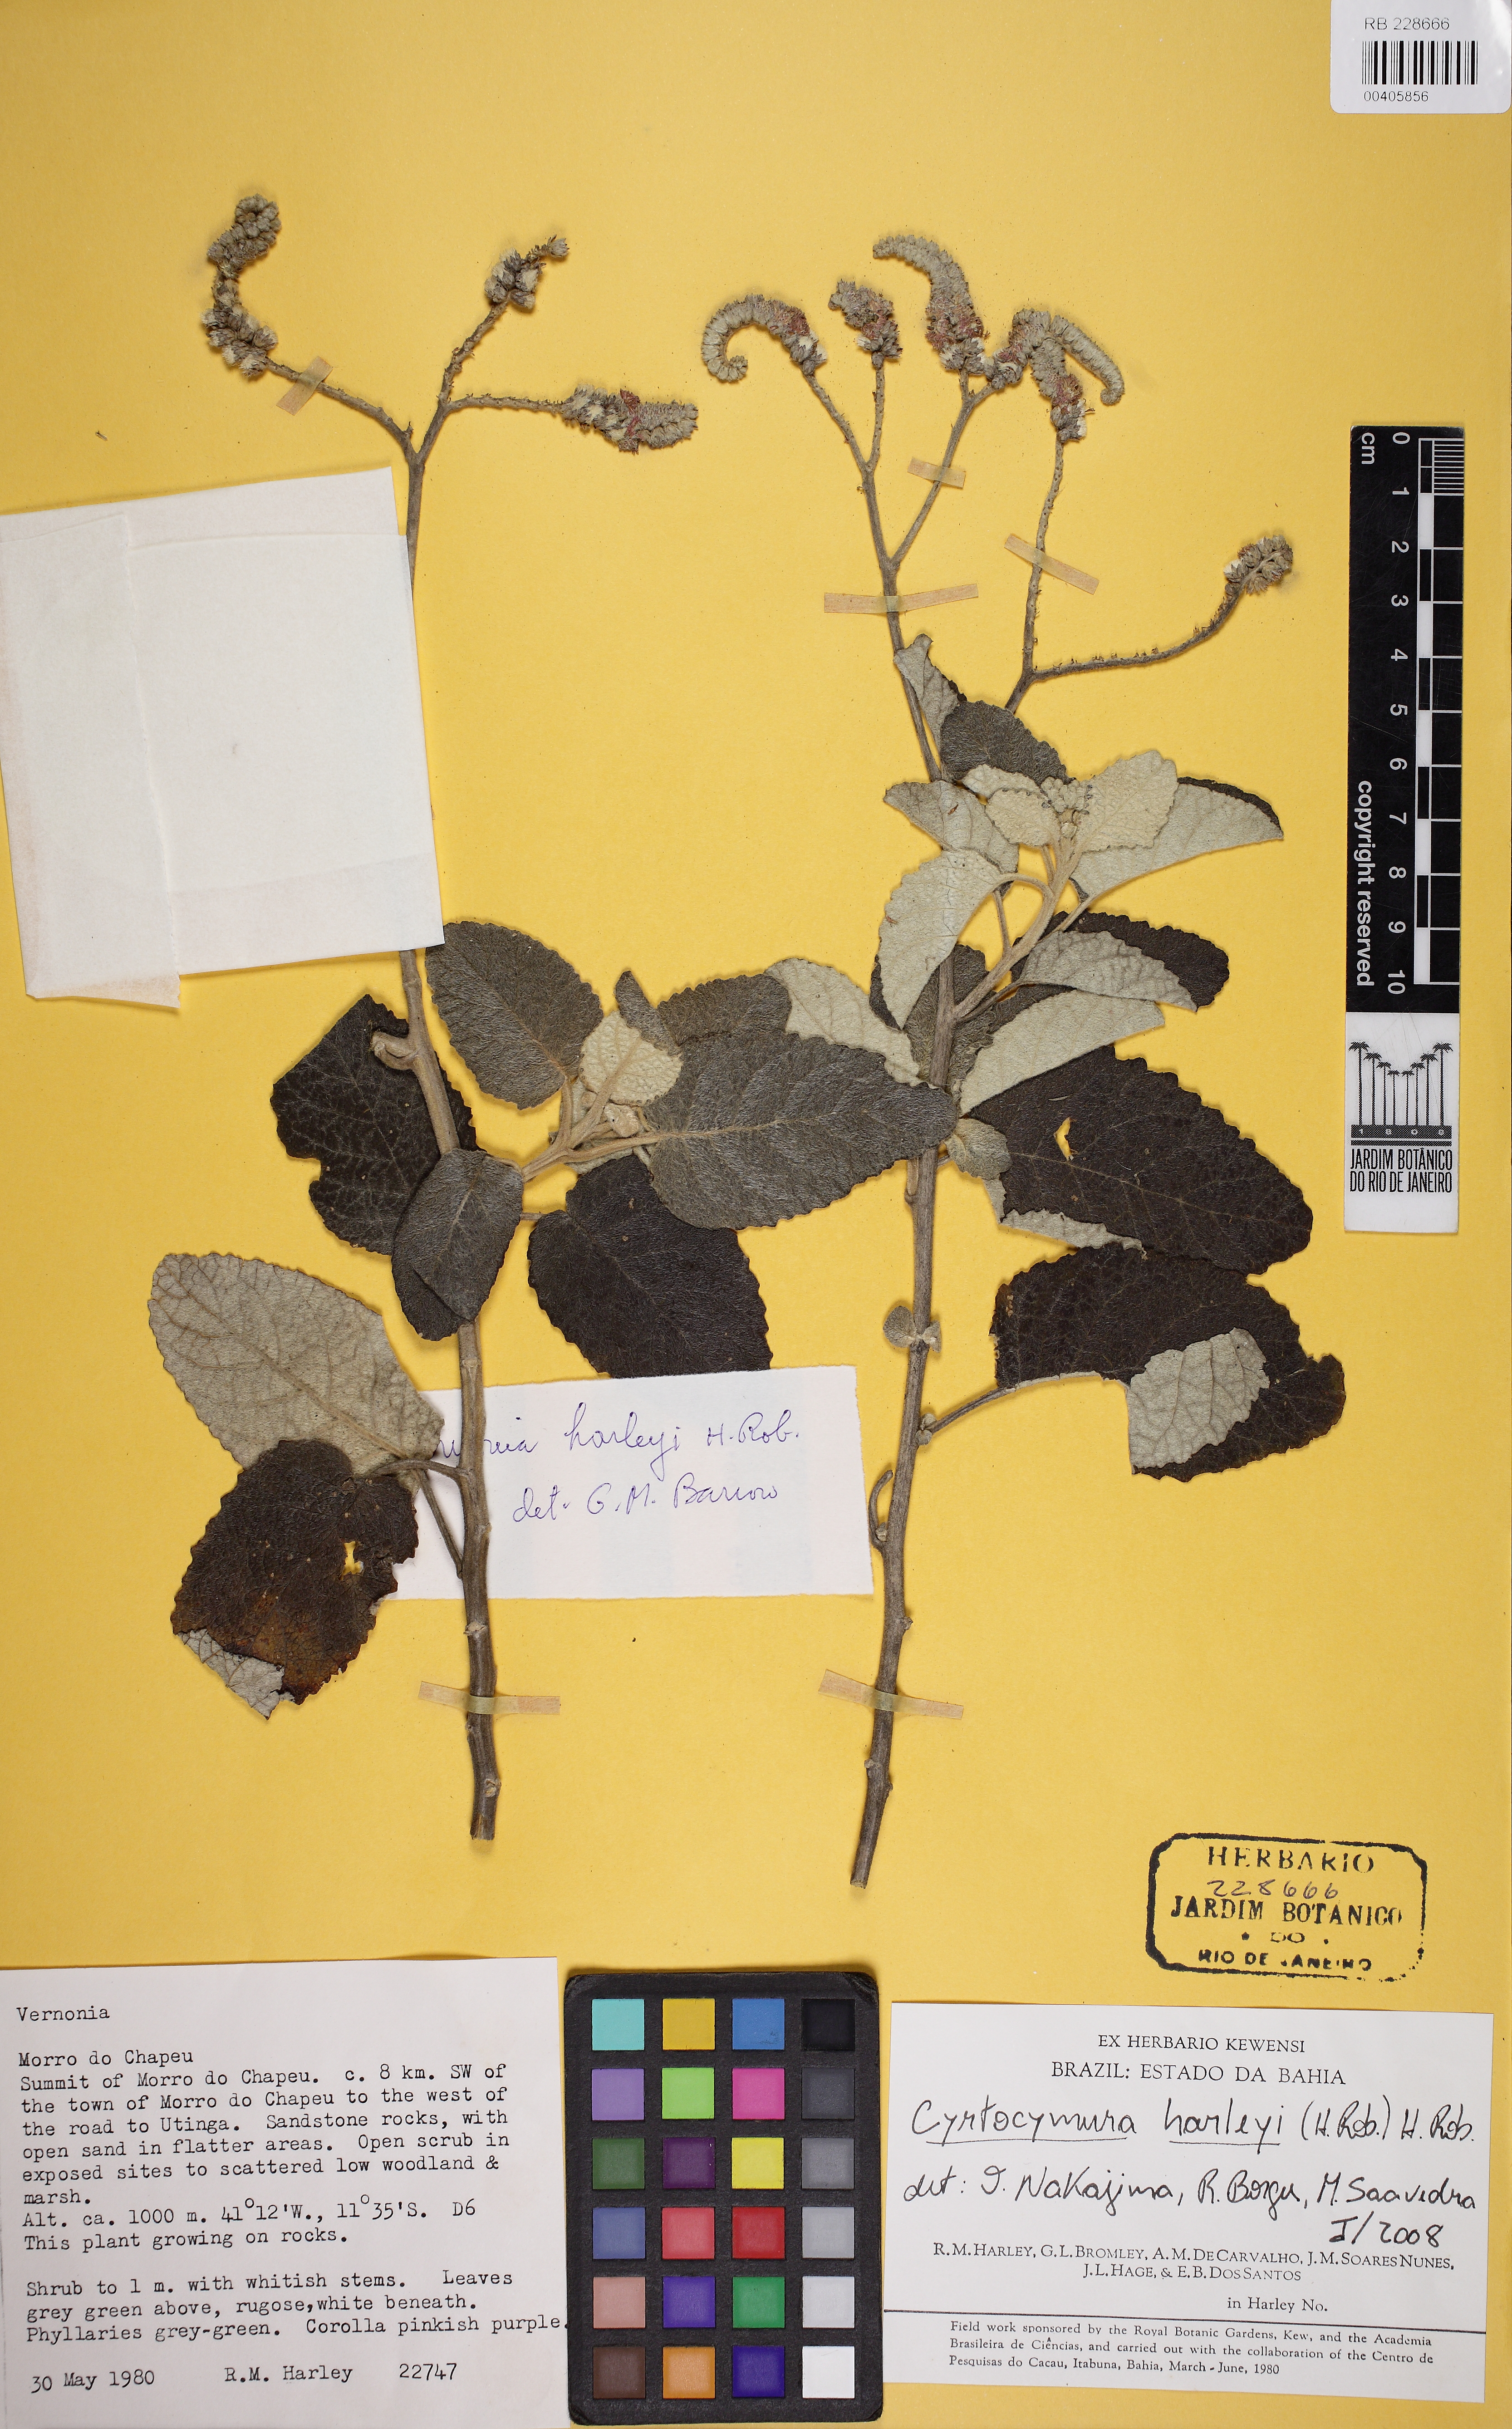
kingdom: Plantae
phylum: Tracheophyta
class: Magnoliopsida
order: Asterales
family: Asteraceae
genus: Cyrtocymura
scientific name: Cyrtocymura harleyi
